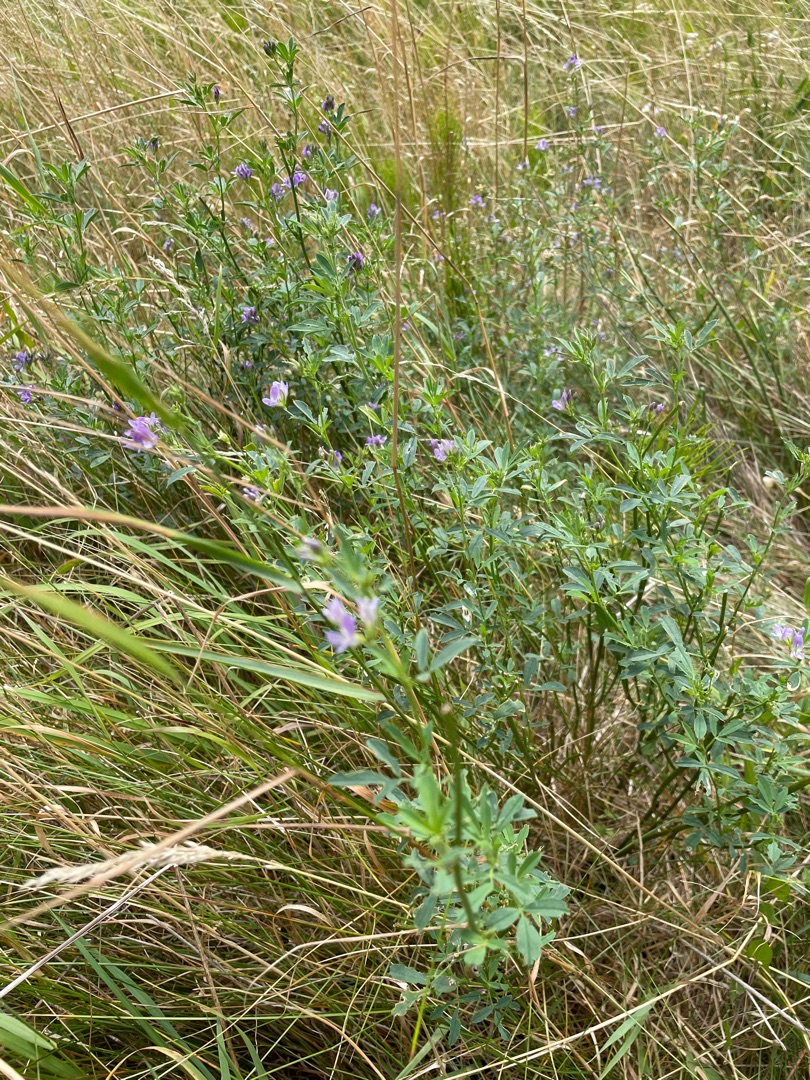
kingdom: Plantae
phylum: Tracheophyta
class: Magnoliopsida
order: Fabales
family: Fabaceae
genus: Medicago
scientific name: Medicago sativa
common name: Lucerne
